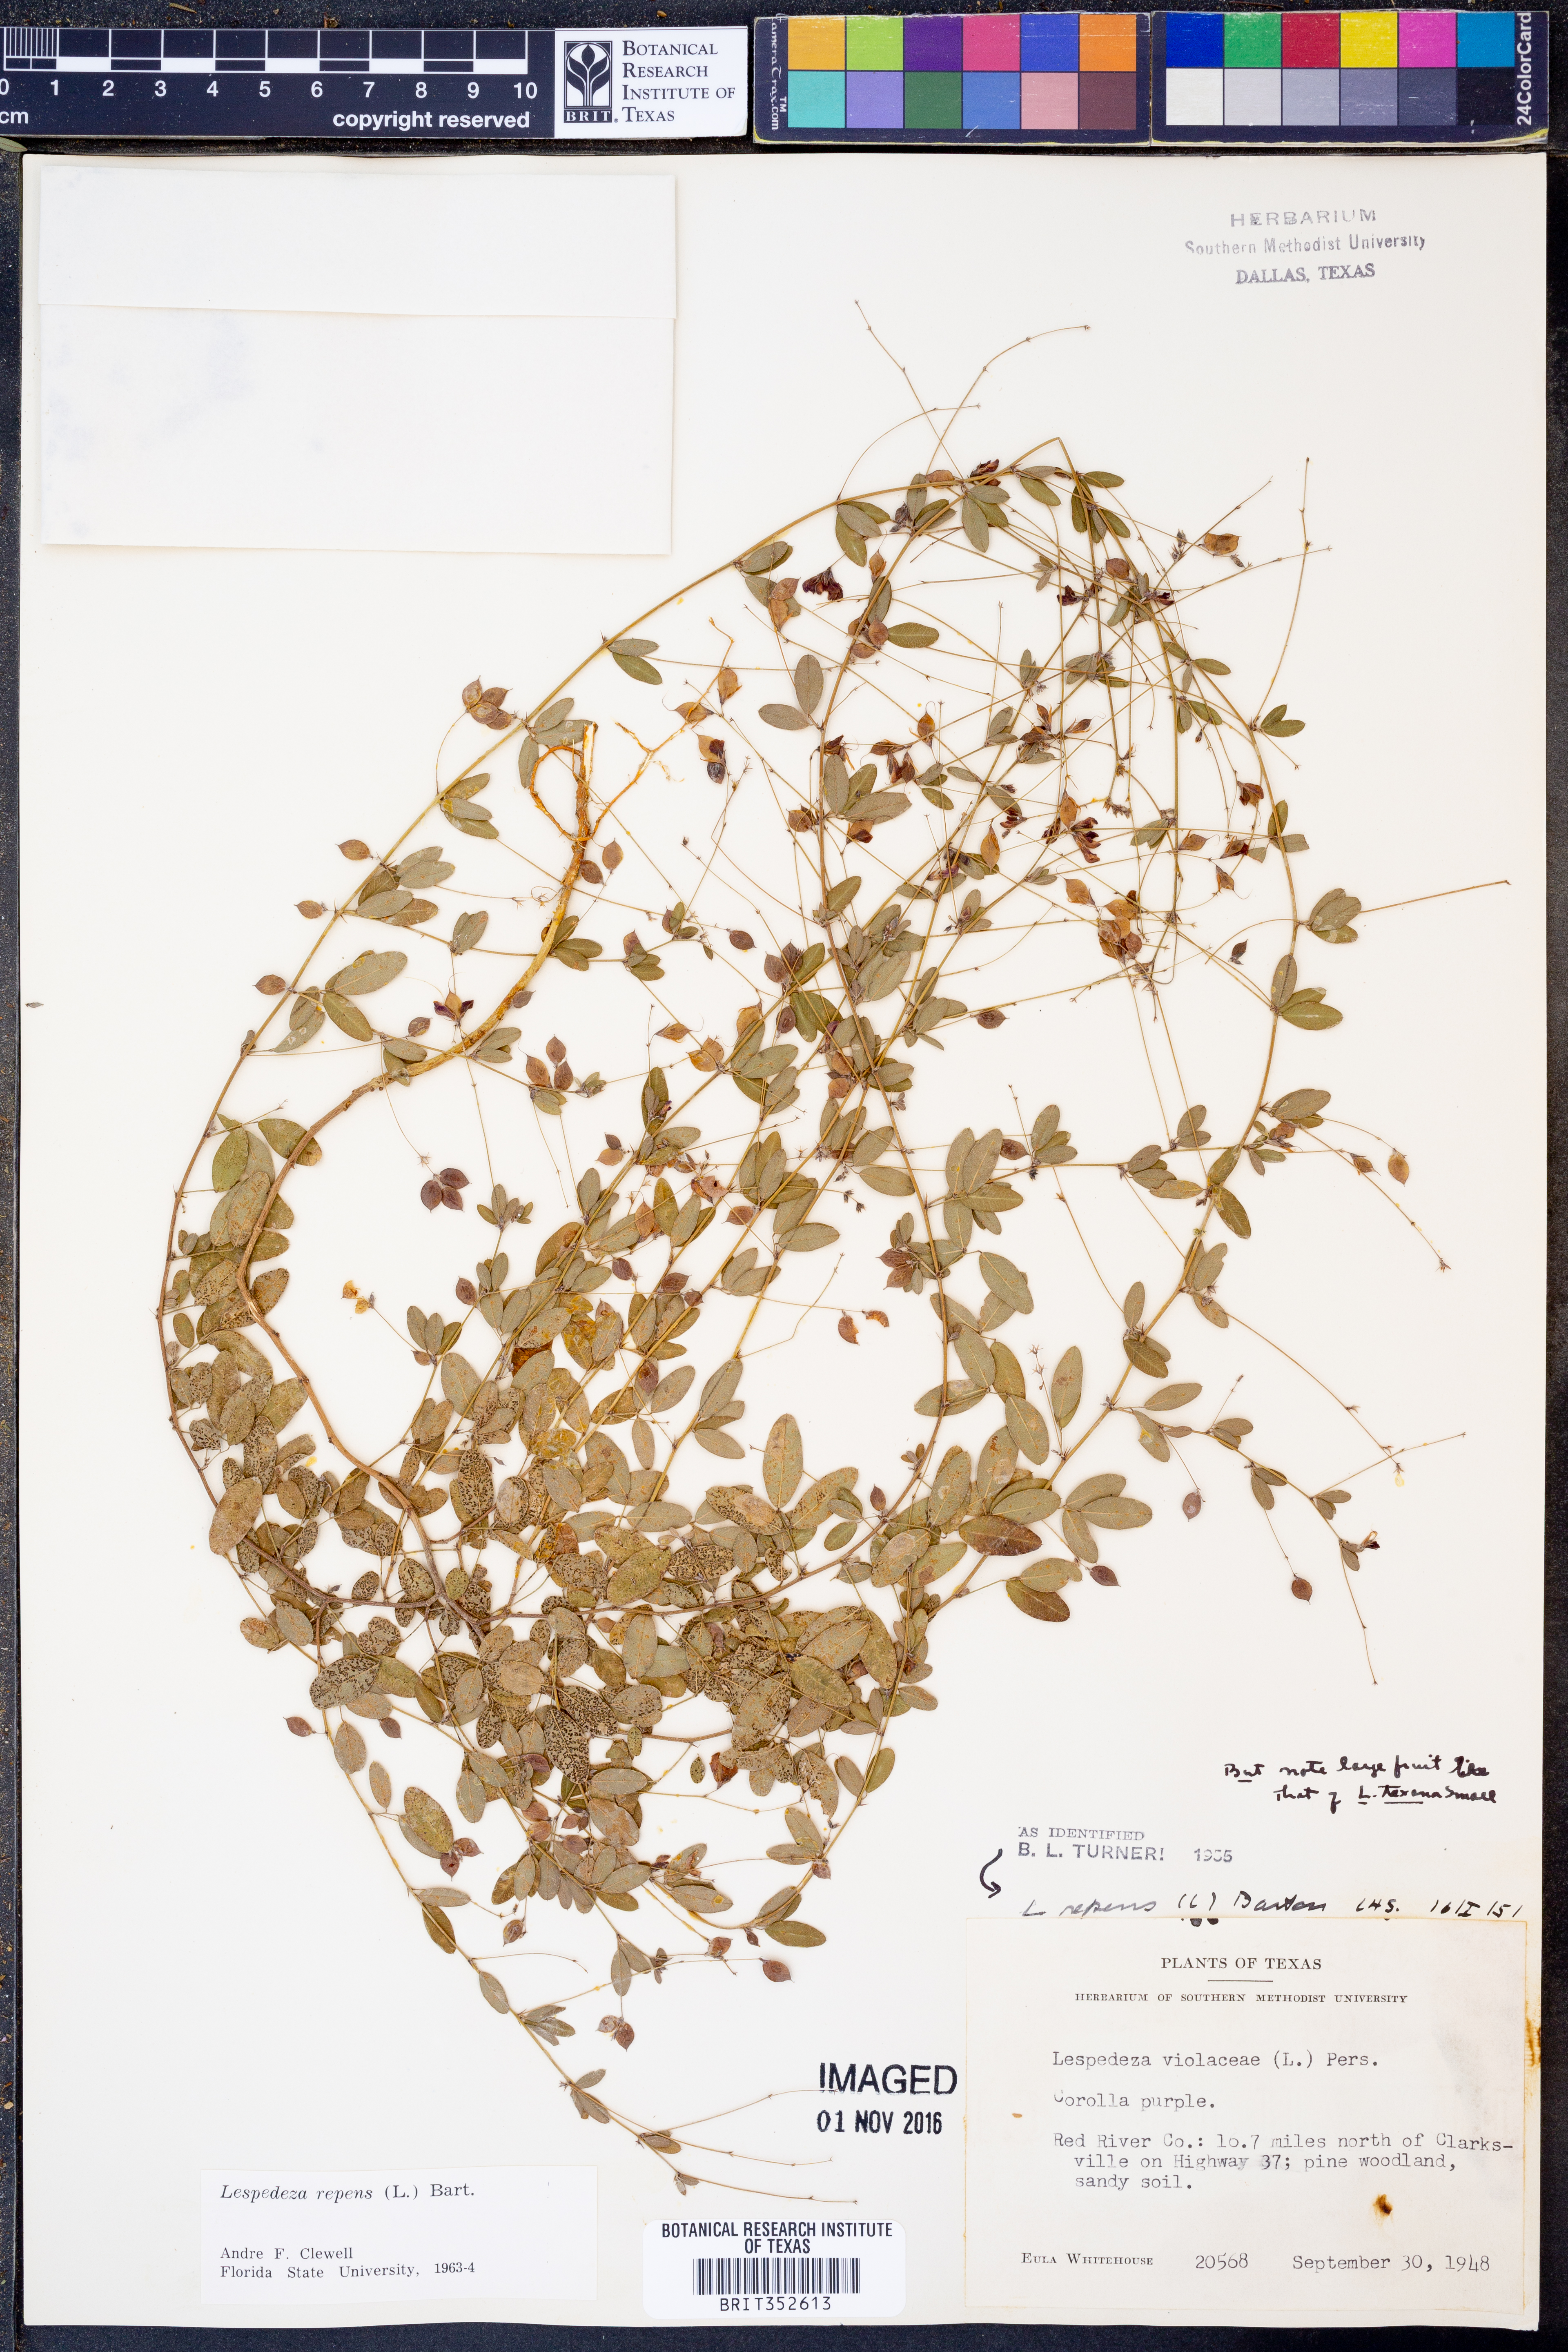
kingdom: Plantae
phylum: Tracheophyta
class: Magnoliopsida
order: Fabales
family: Fabaceae
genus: Lespedeza
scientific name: Lespedeza repens
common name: Creeping bush-clover
